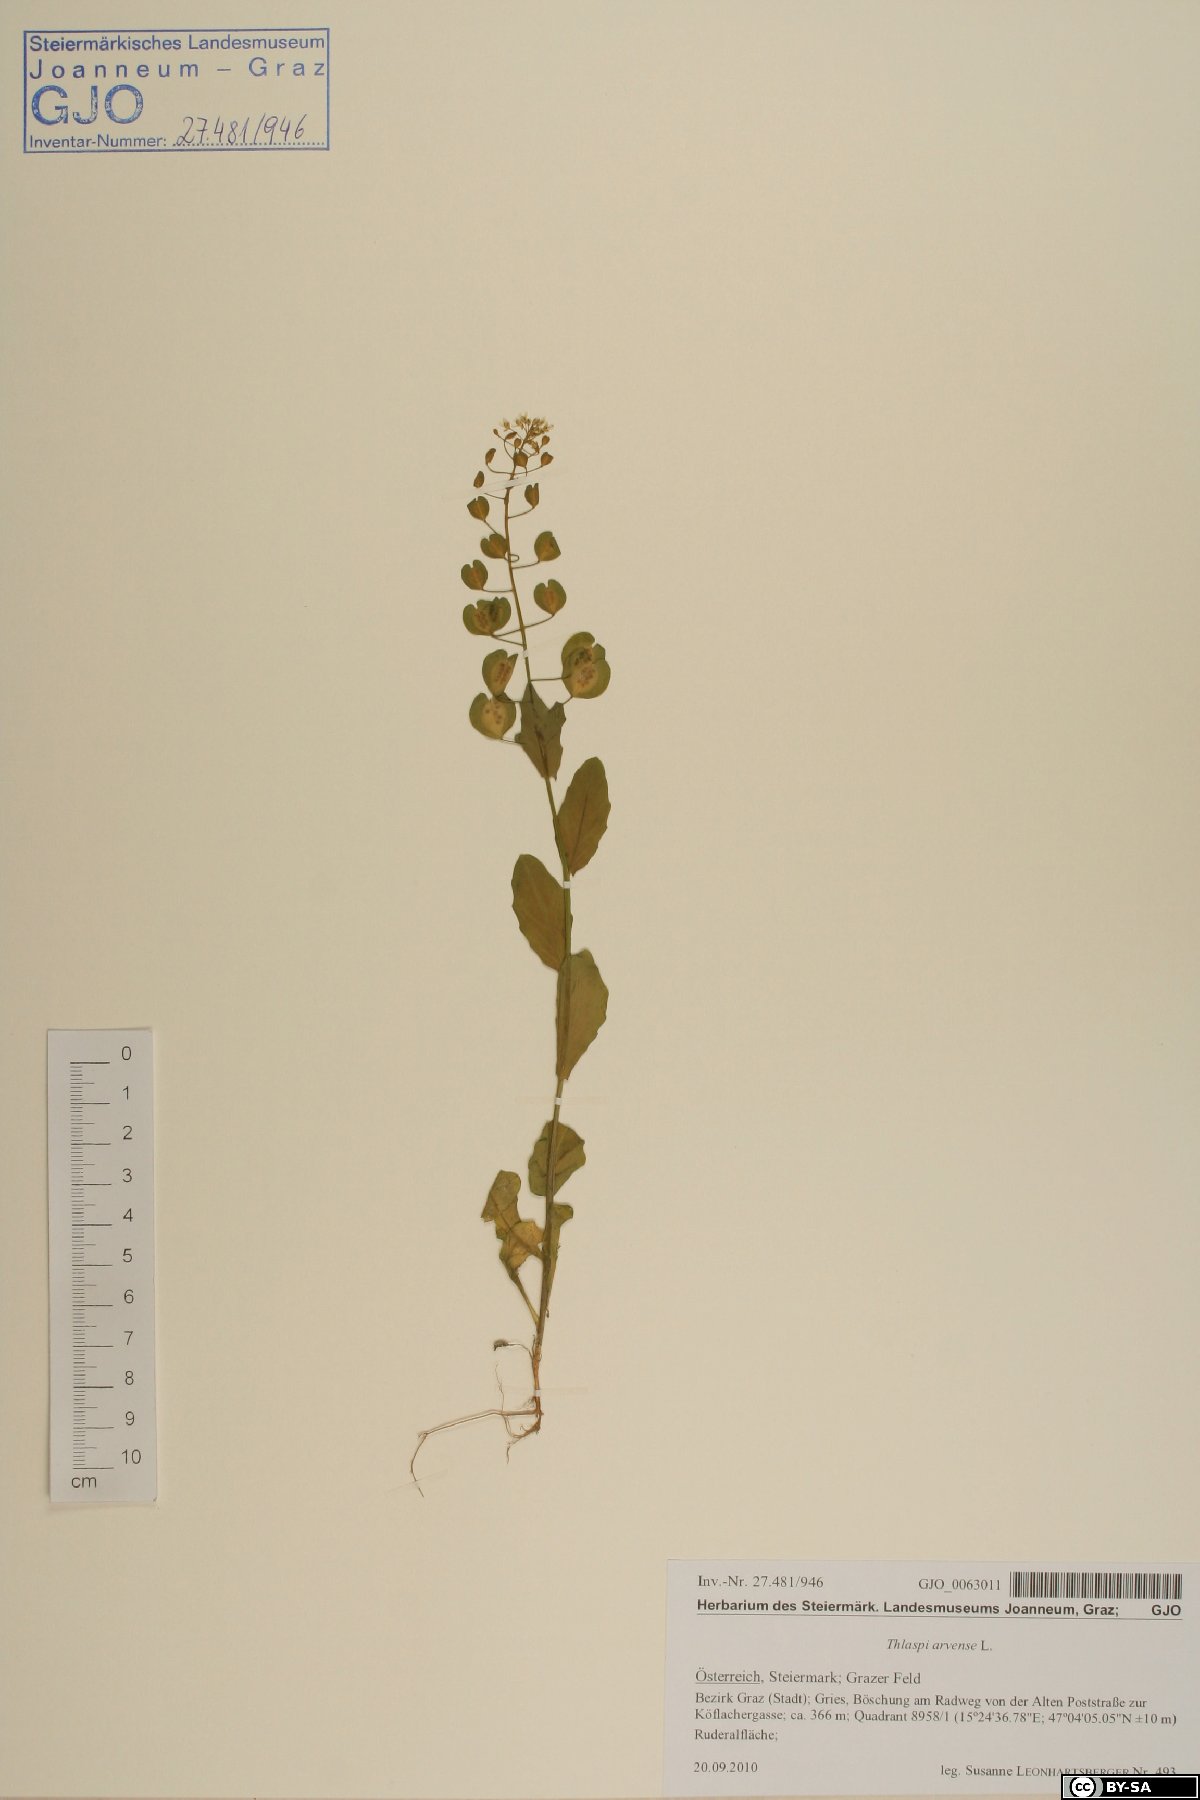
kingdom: Plantae
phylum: Tracheophyta
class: Magnoliopsida
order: Brassicales
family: Brassicaceae
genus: Thlaspi
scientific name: Thlaspi arvense
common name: Field pennycress
